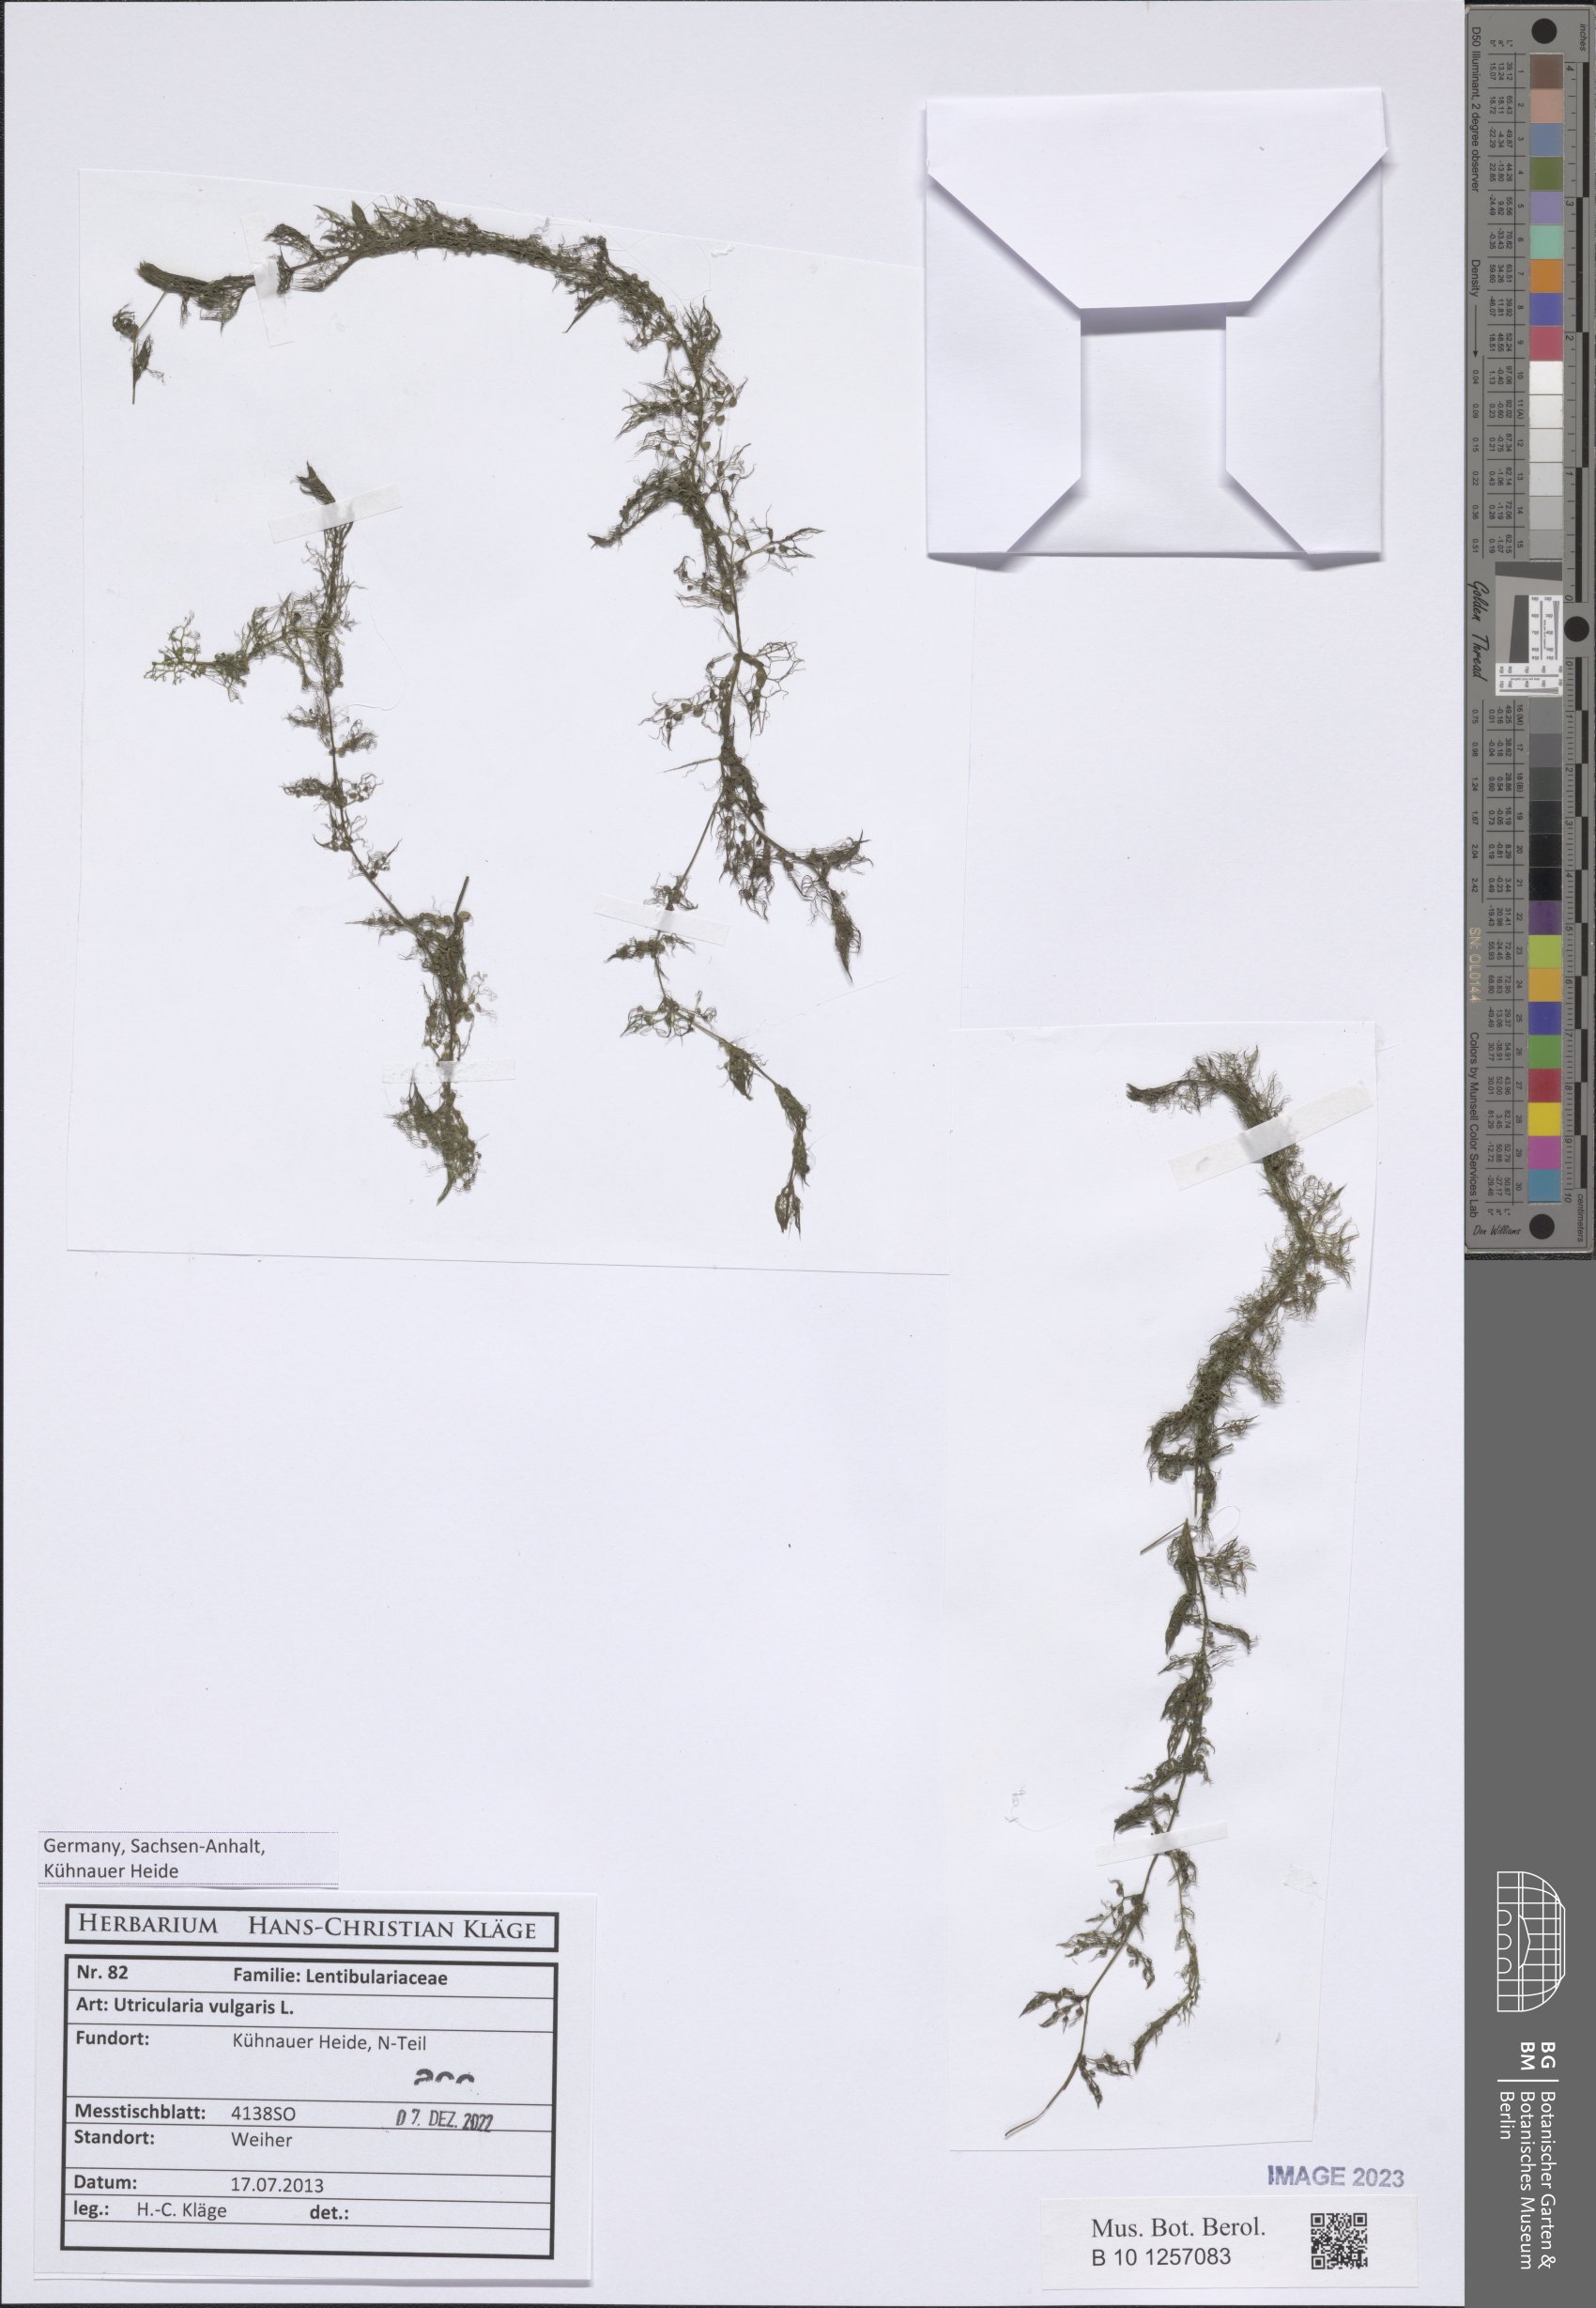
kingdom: Plantae
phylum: Tracheophyta
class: Magnoliopsida
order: Lamiales
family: Lentibulariaceae
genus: Utricularia
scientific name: Utricularia vulgaris
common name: Greater bladderwort
